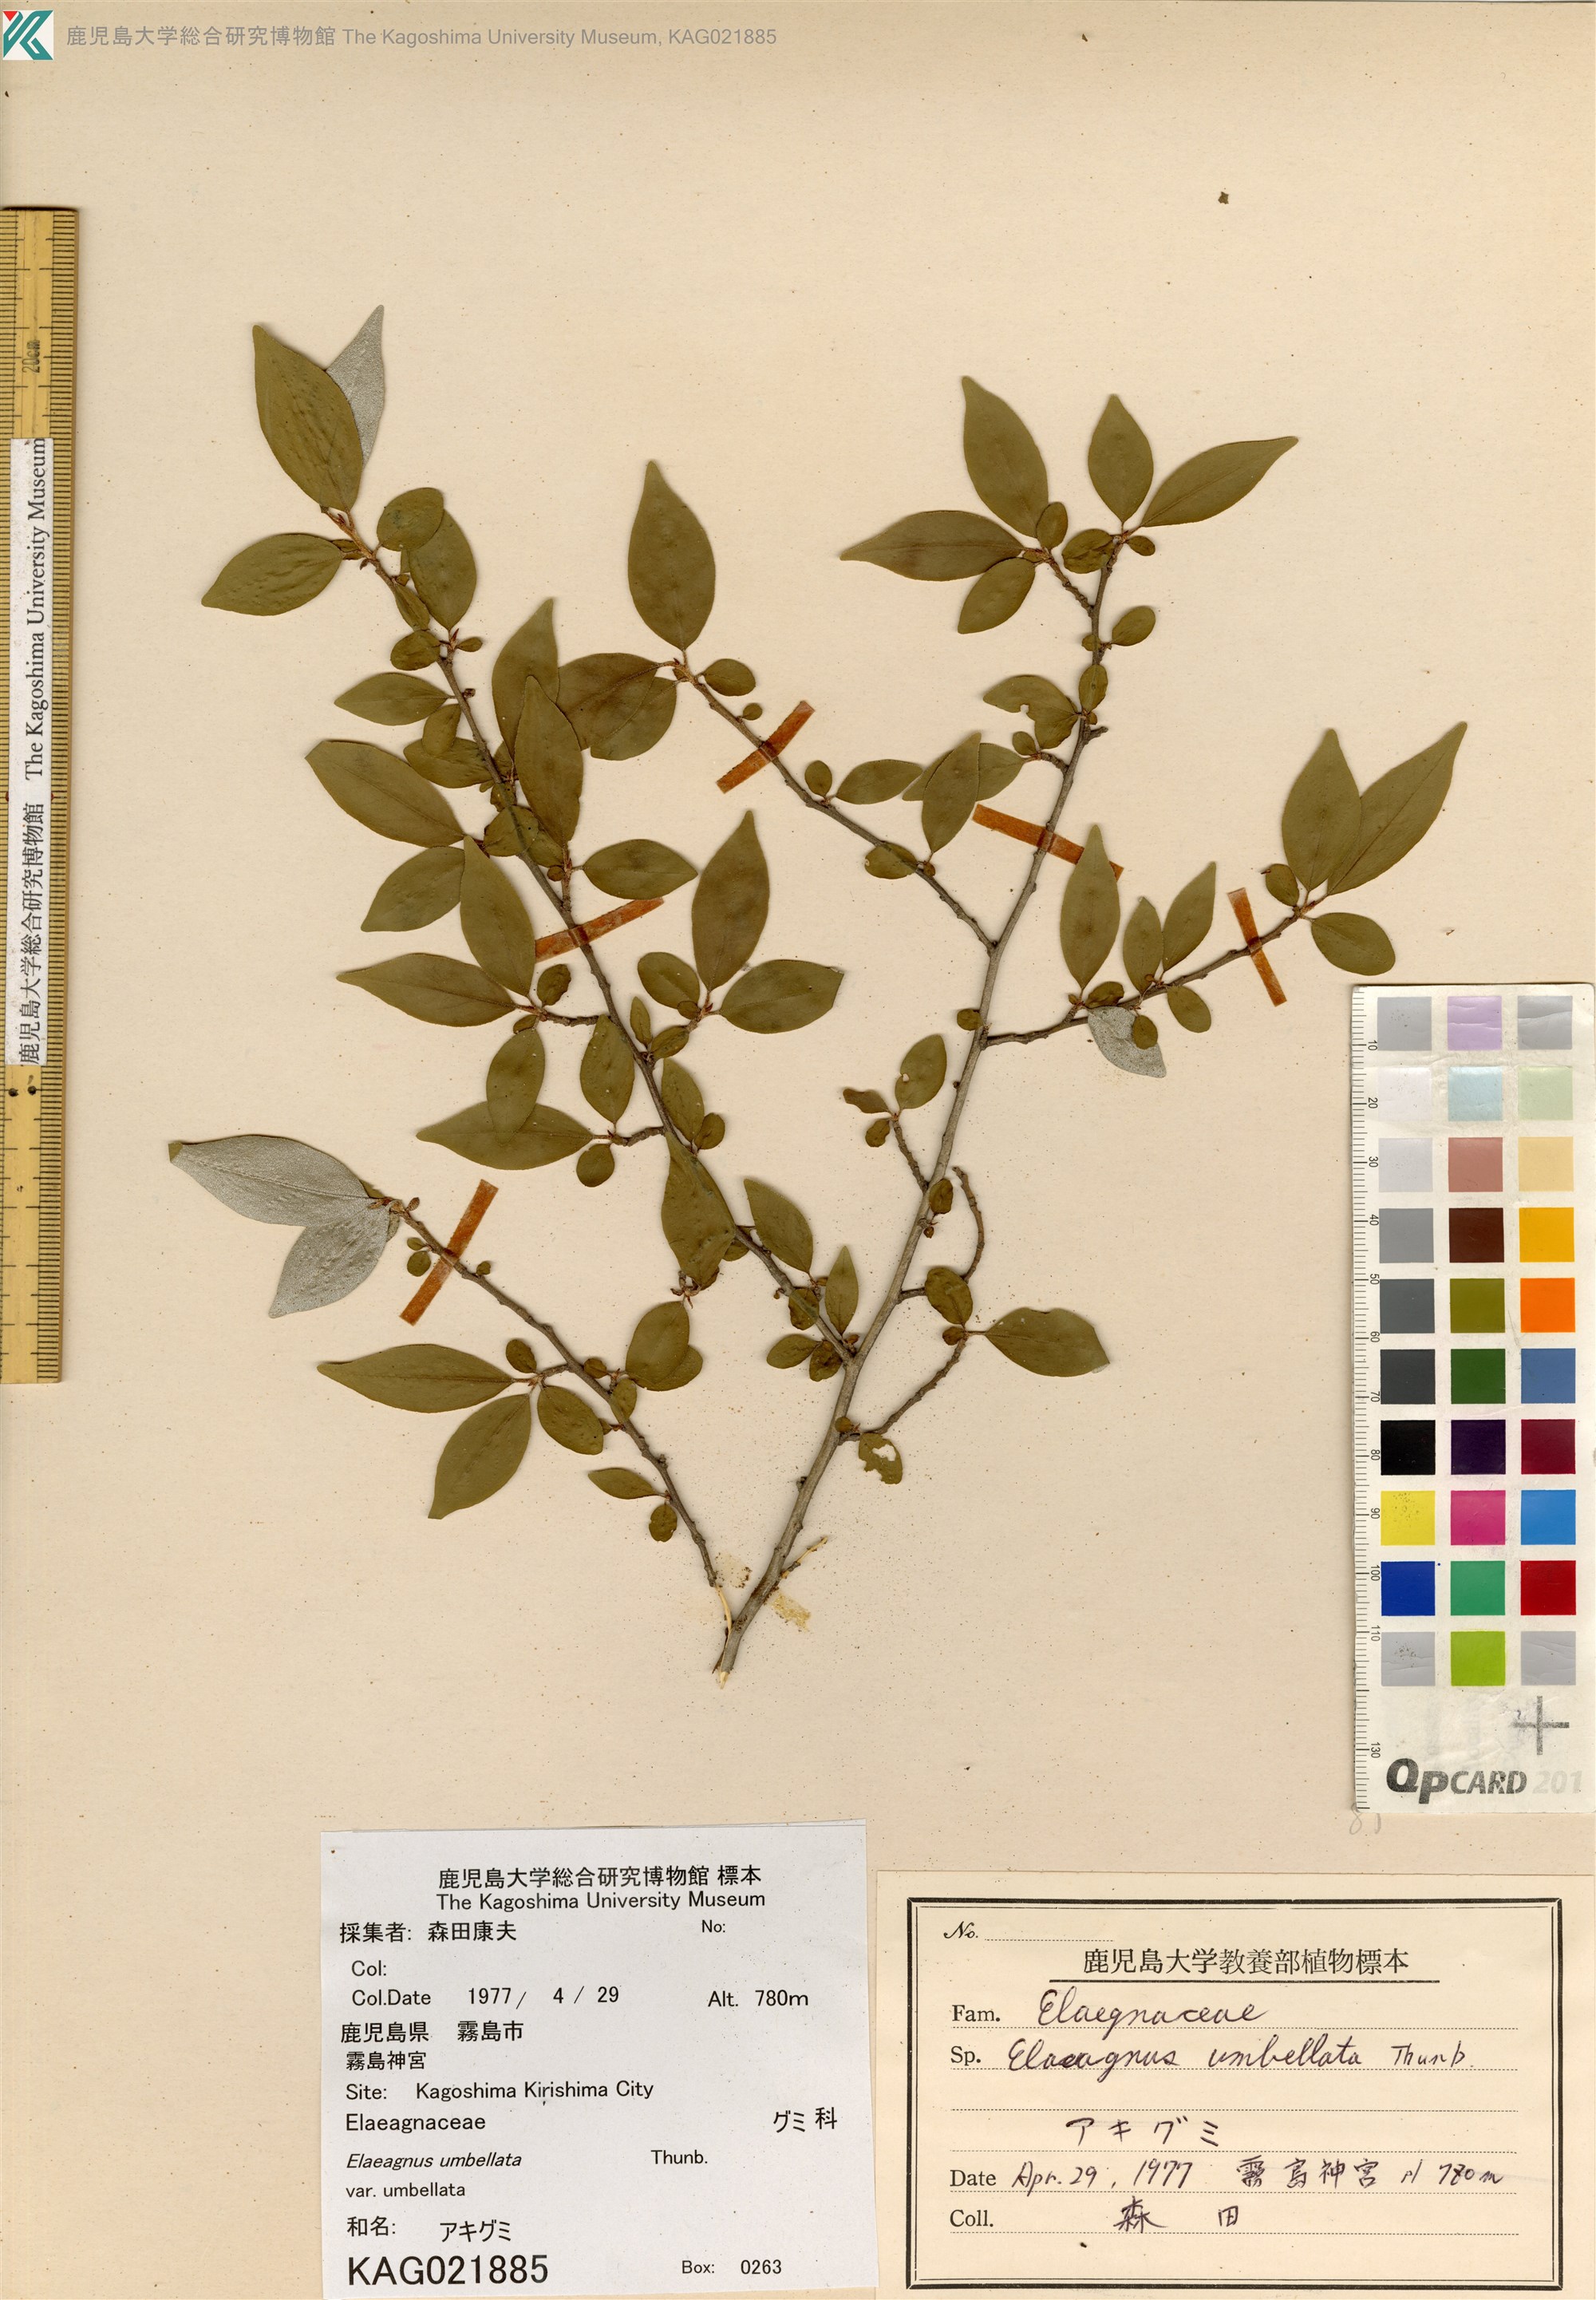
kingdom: Plantae
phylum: Tracheophyta
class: Magnoliopsida
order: Rosales
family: Elaeagnaceae
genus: Elaeagnus
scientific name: Elaeagnus umbellata
